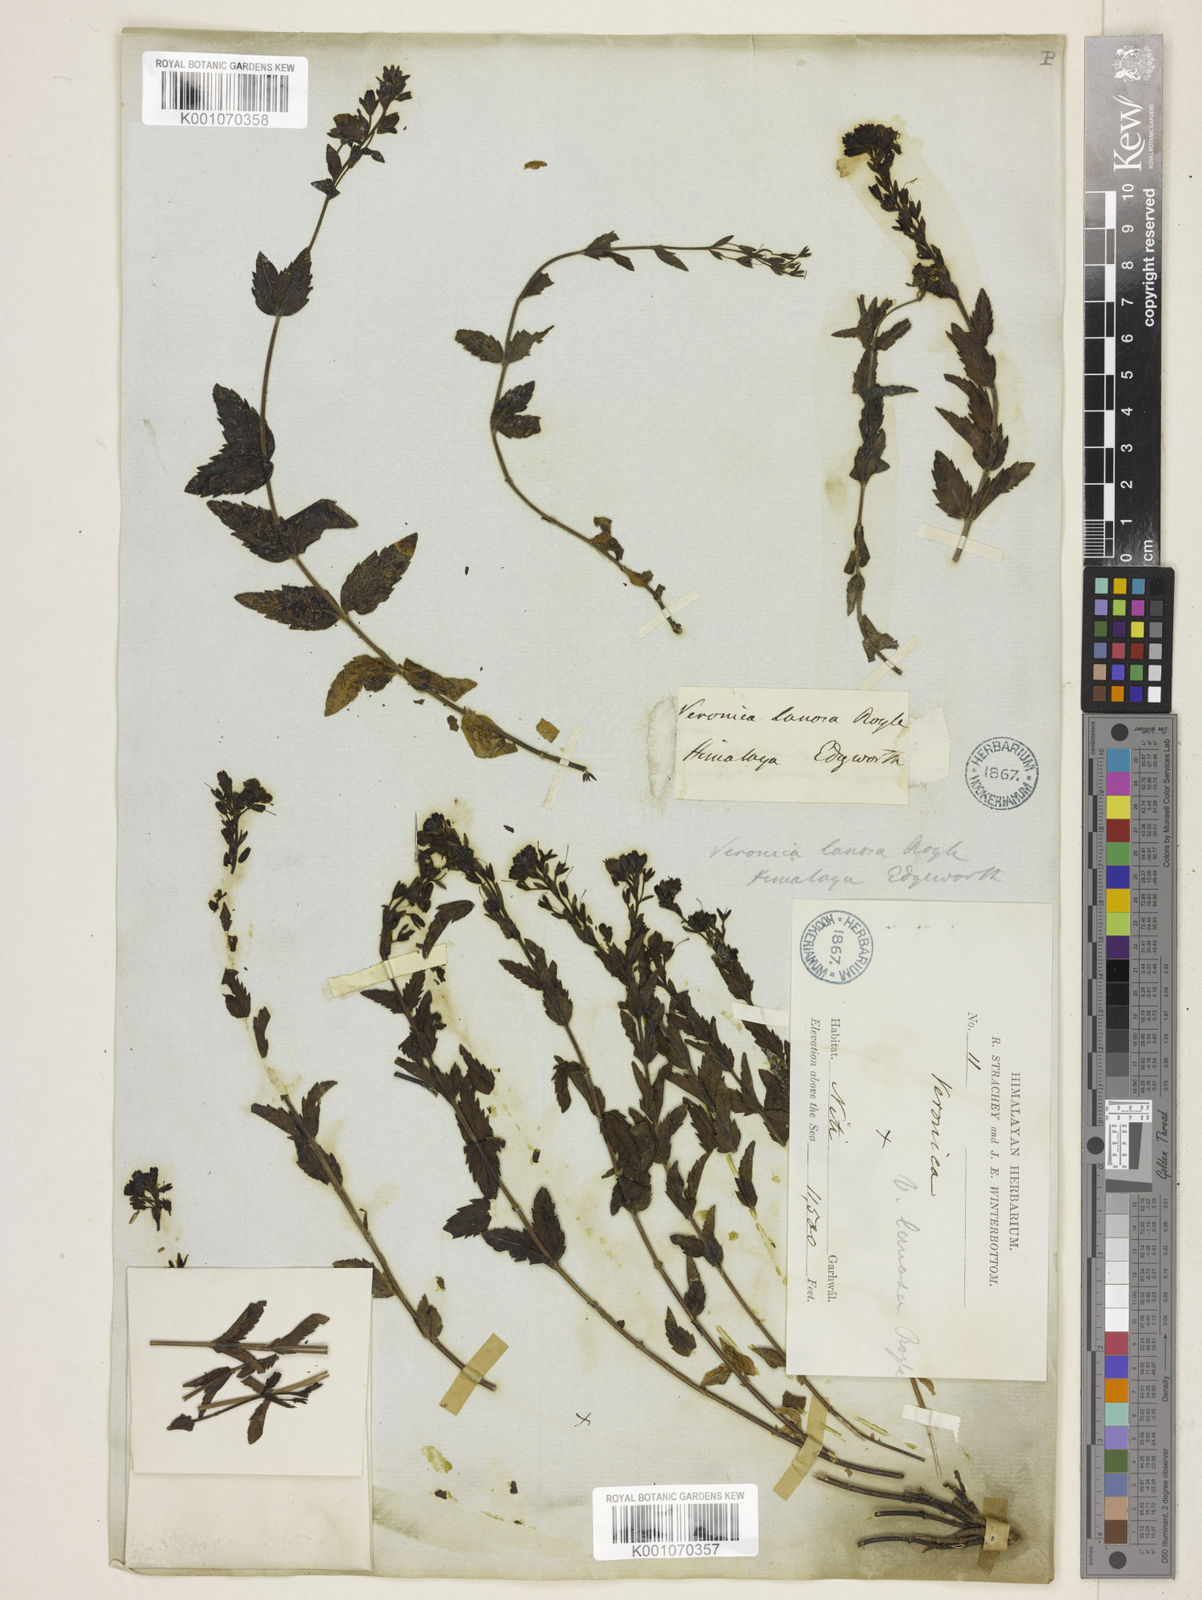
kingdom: Plantae
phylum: Tracheophyta
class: Magnoliopsida
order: Lamiales
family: Plantaginaceae
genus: Veronica
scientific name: Veronica lanosa
